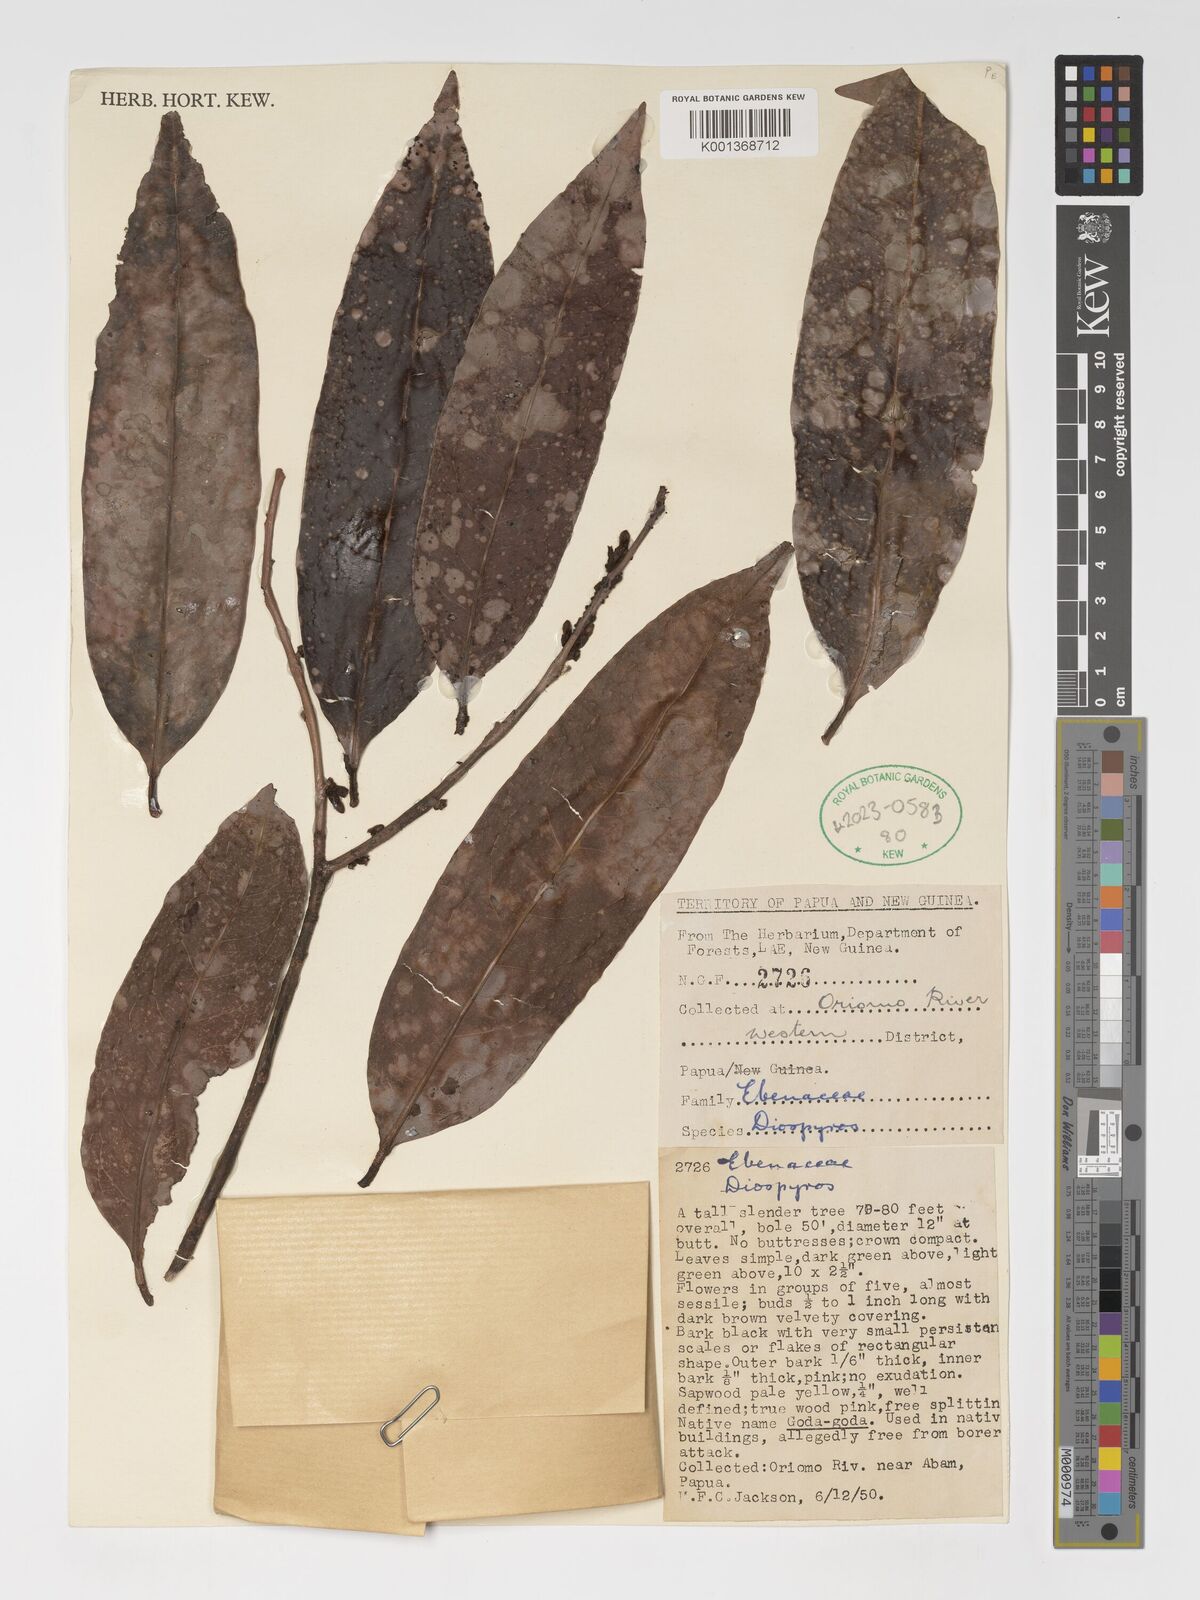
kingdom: Plantae
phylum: Tracheophyta
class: Magnoliopsida
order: Ericales
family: Ebenaceae
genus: Diospyros
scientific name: Diospyros
